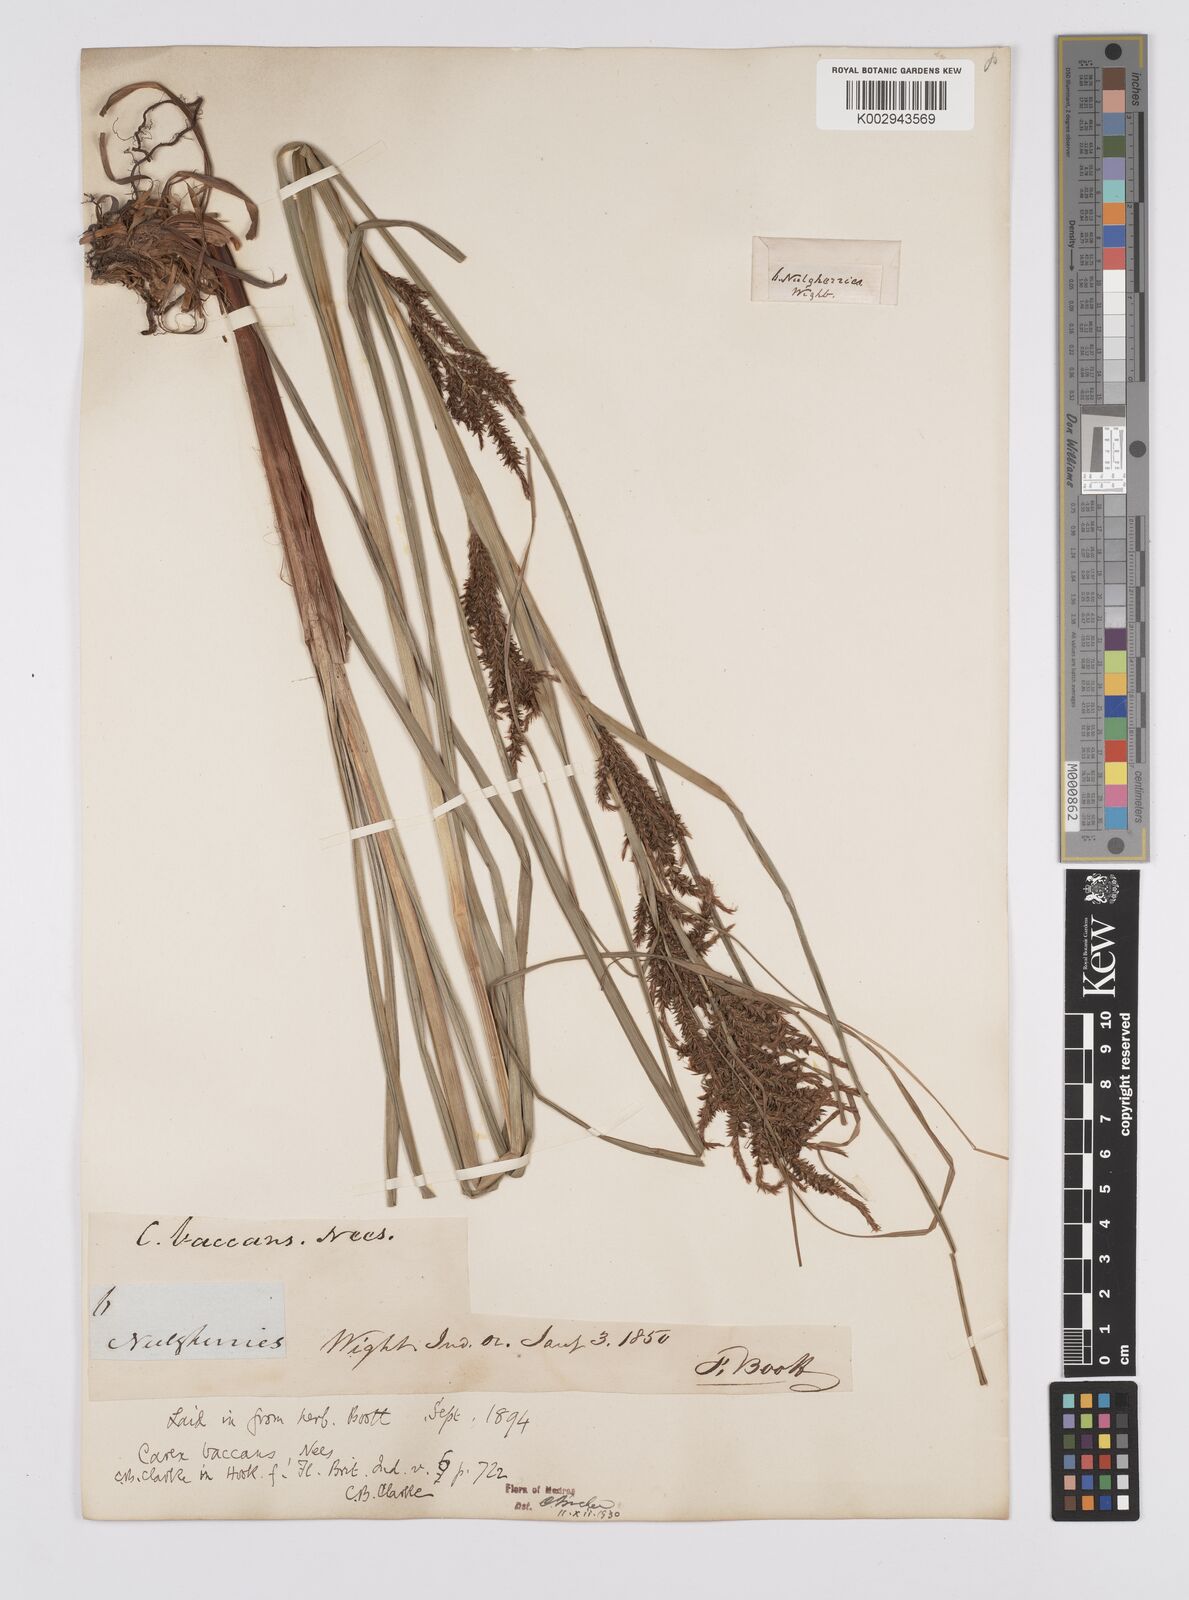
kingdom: Plantae
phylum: Tracheophyta
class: Liliopsida
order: Poales
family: Cyperaceae
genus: Carex
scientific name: Carex baccans
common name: Crimson seeded sedge
